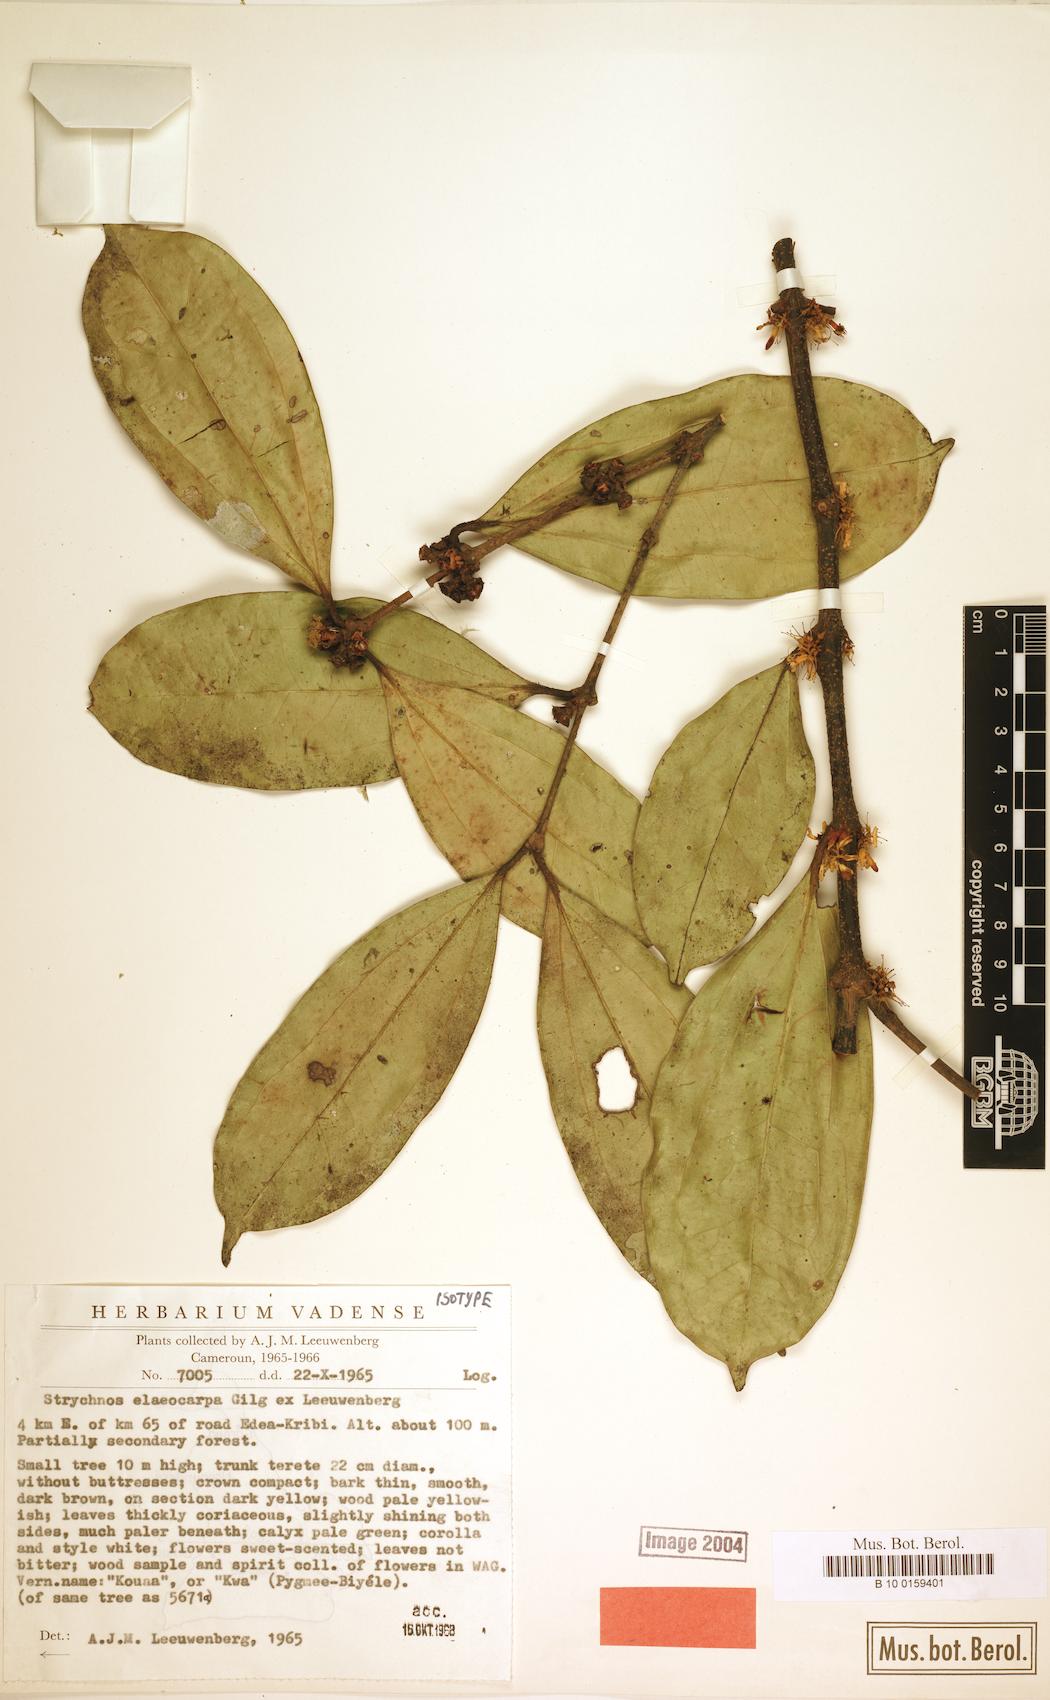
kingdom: Plantae
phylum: Tracheophyta
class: Magnoliopsida
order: Gentianales
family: Loganiaceae
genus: Strychnos
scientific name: Strychnos elaeocarpa
